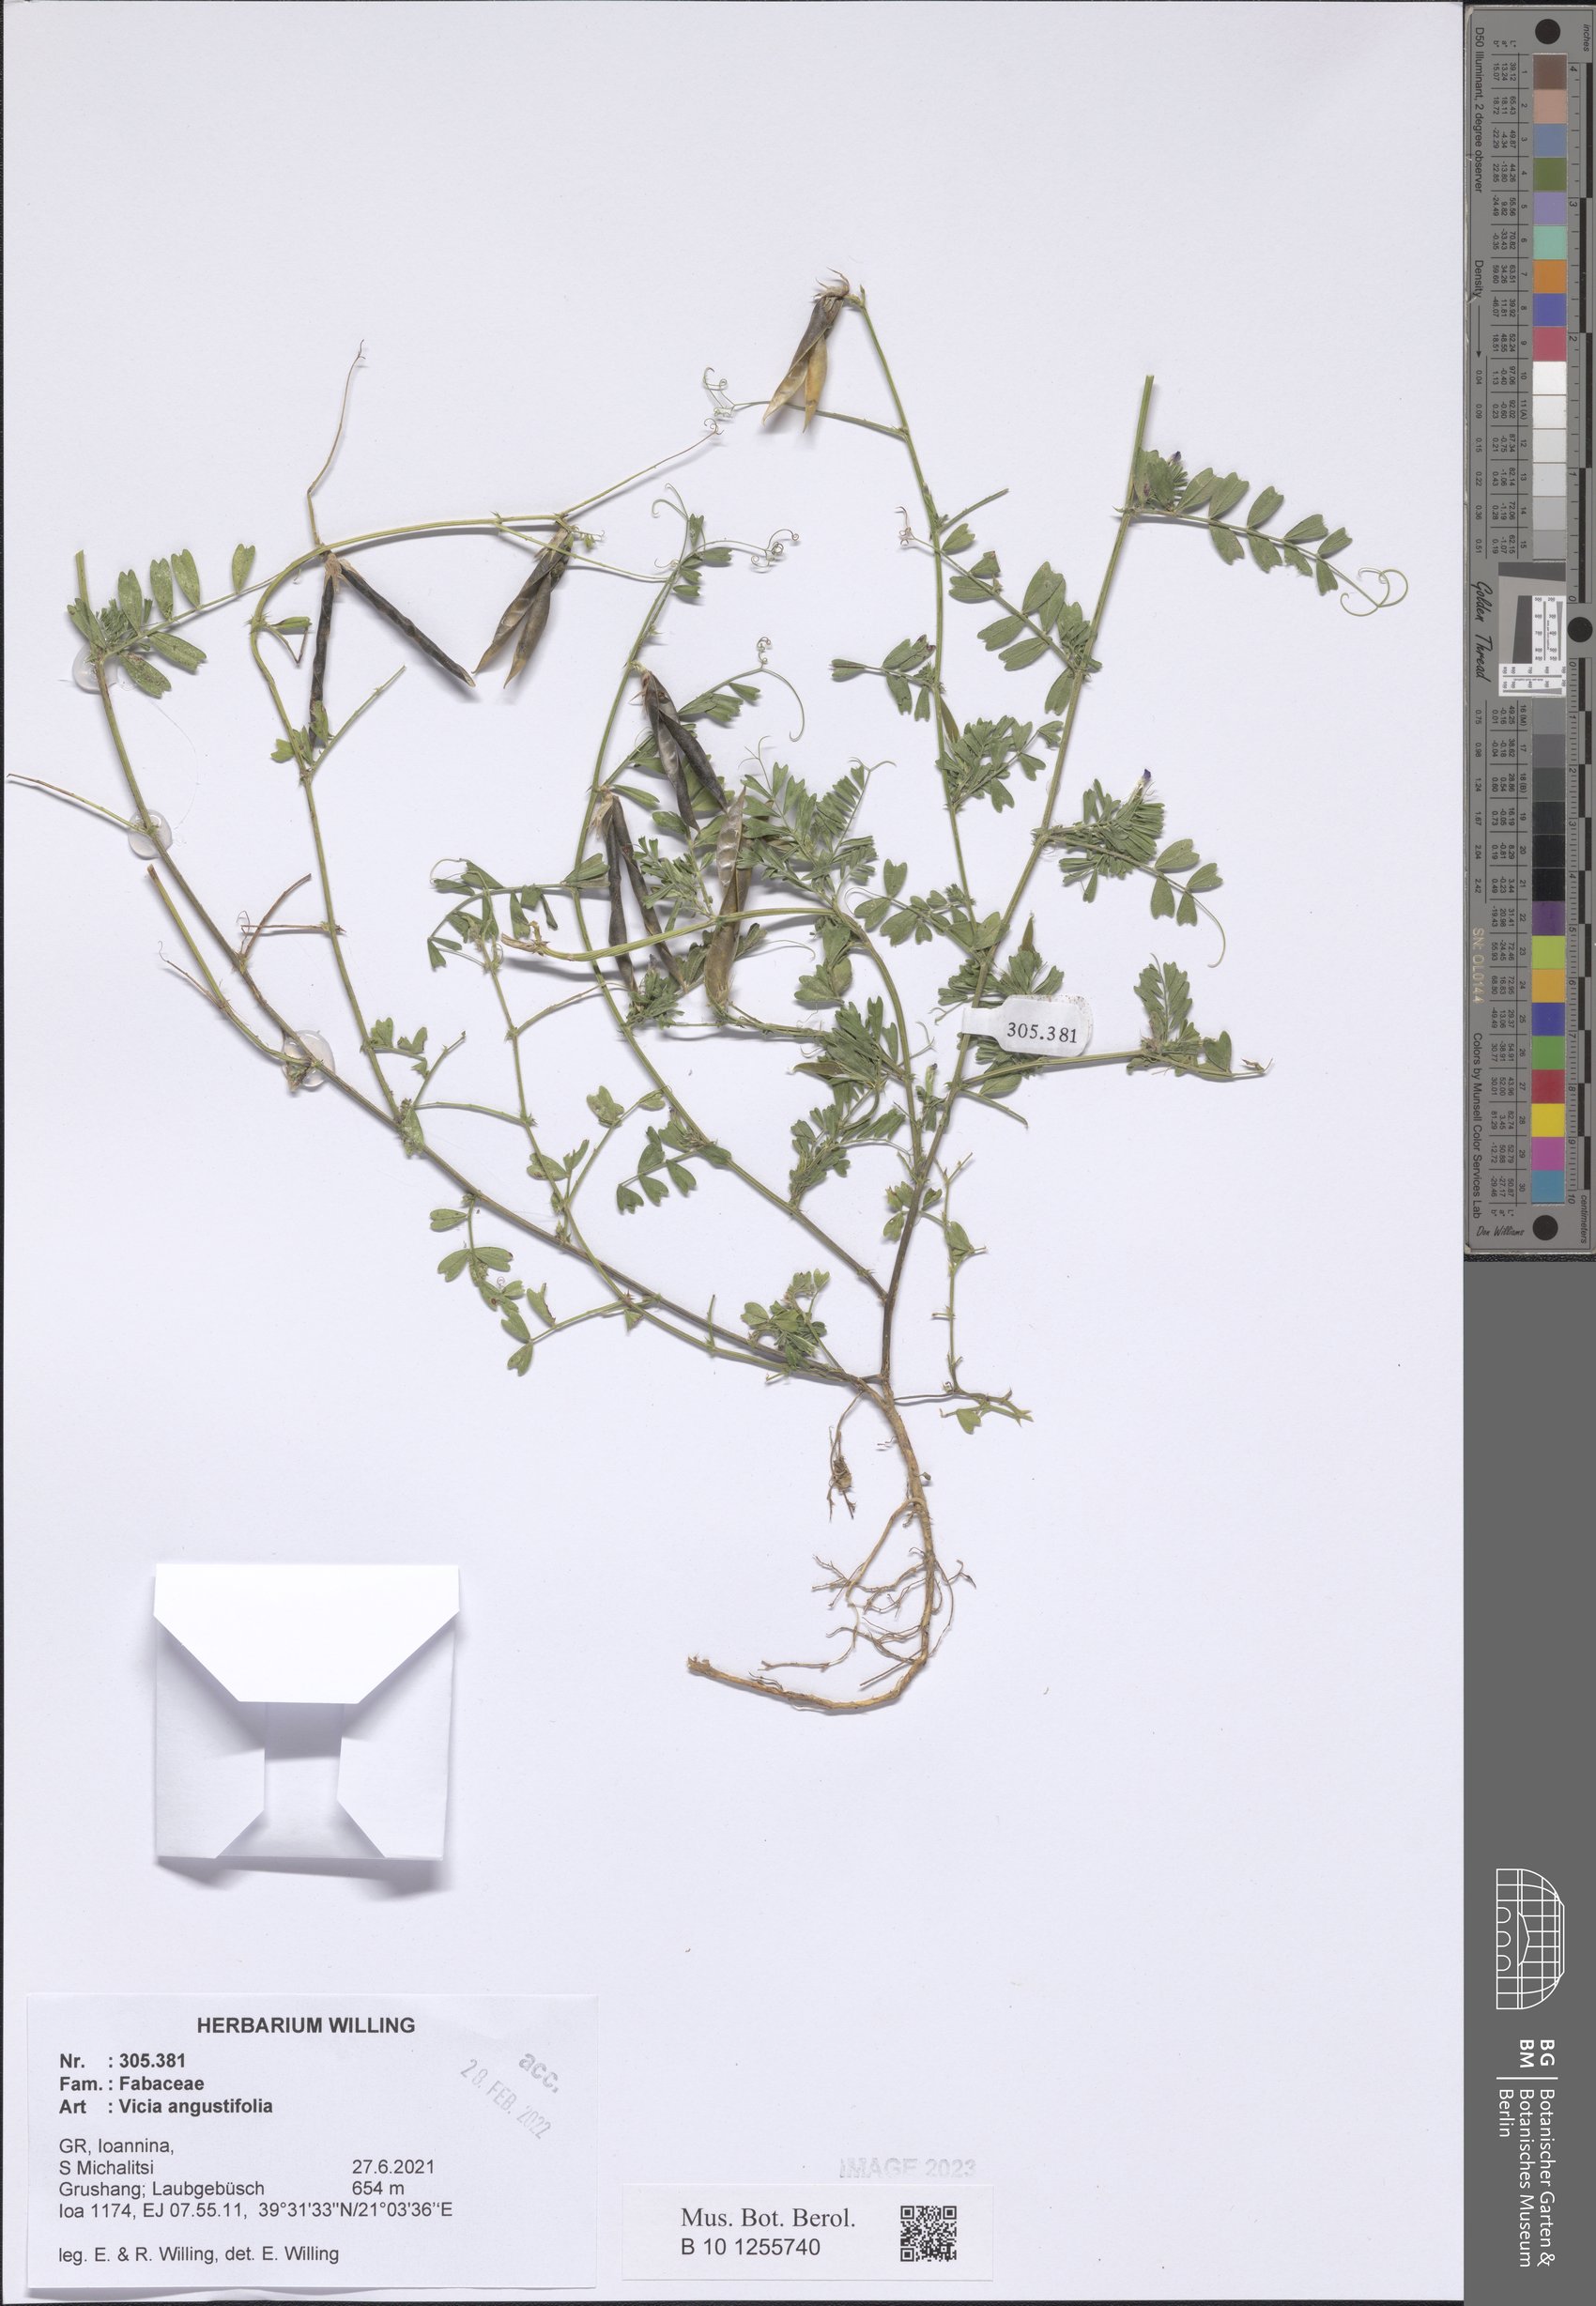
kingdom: Plantae
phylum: Tracheophyta
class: Magnoliopsida
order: Fabales
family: Fabaceae
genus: Vicia
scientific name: Vicia sativa
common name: Garden vetch
